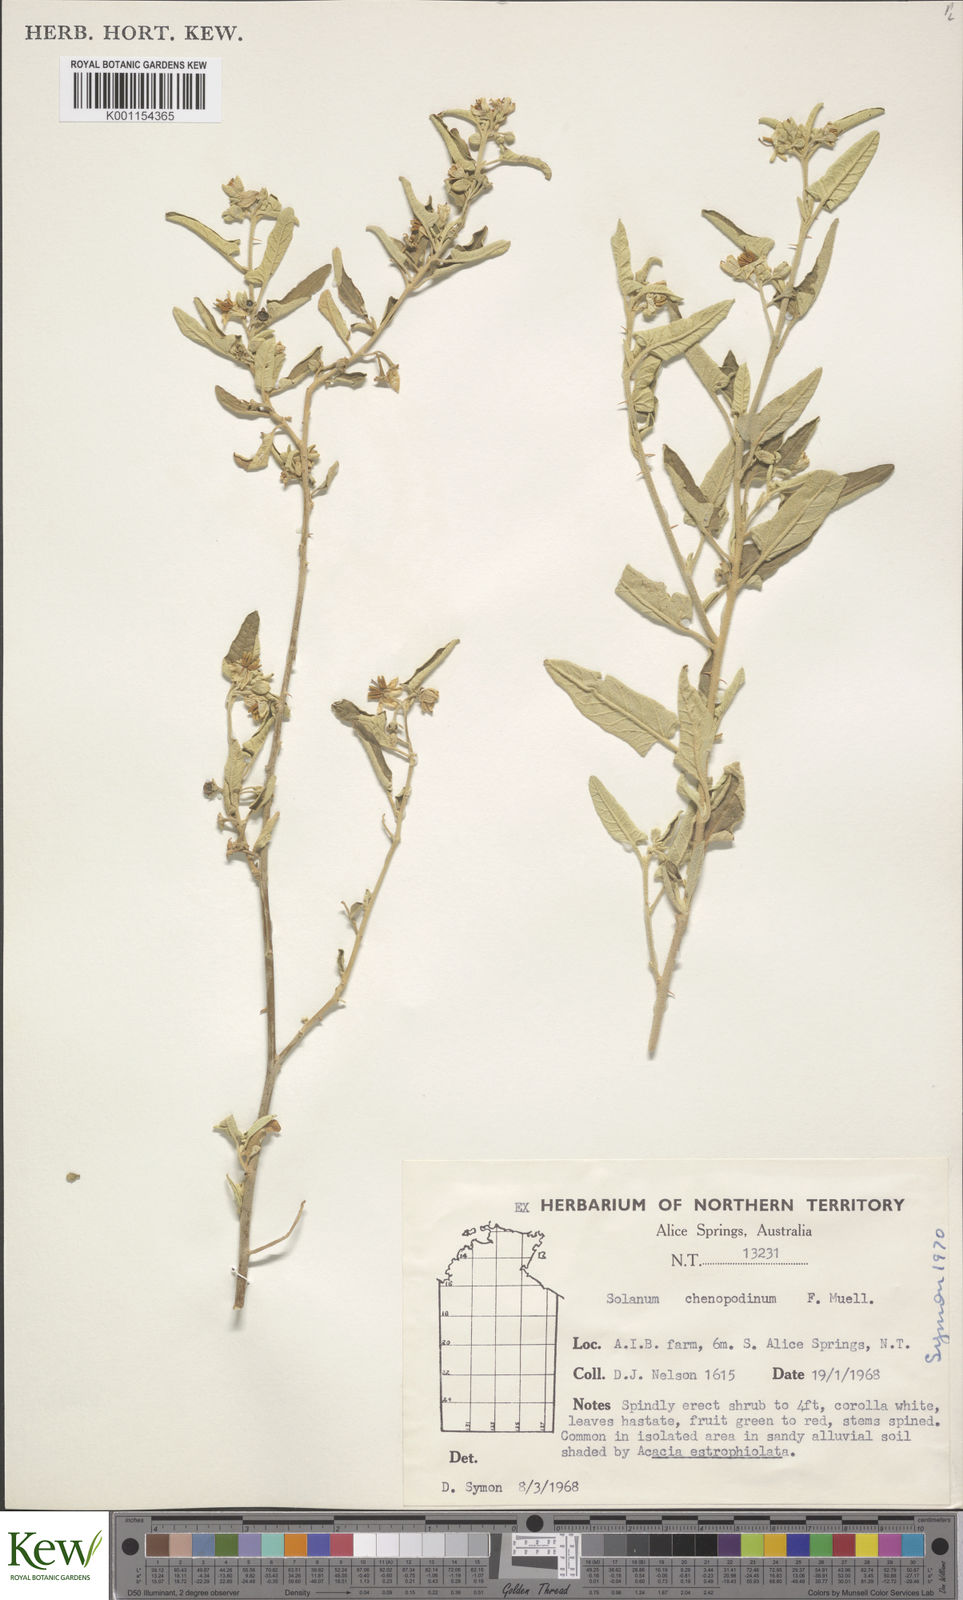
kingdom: Plantae
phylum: Tracheophyta
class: Magnoliopsida
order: Solanales
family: Solanaceae
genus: Solanum
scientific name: Solanum chenopodinum
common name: Goosefoot potato-bush
